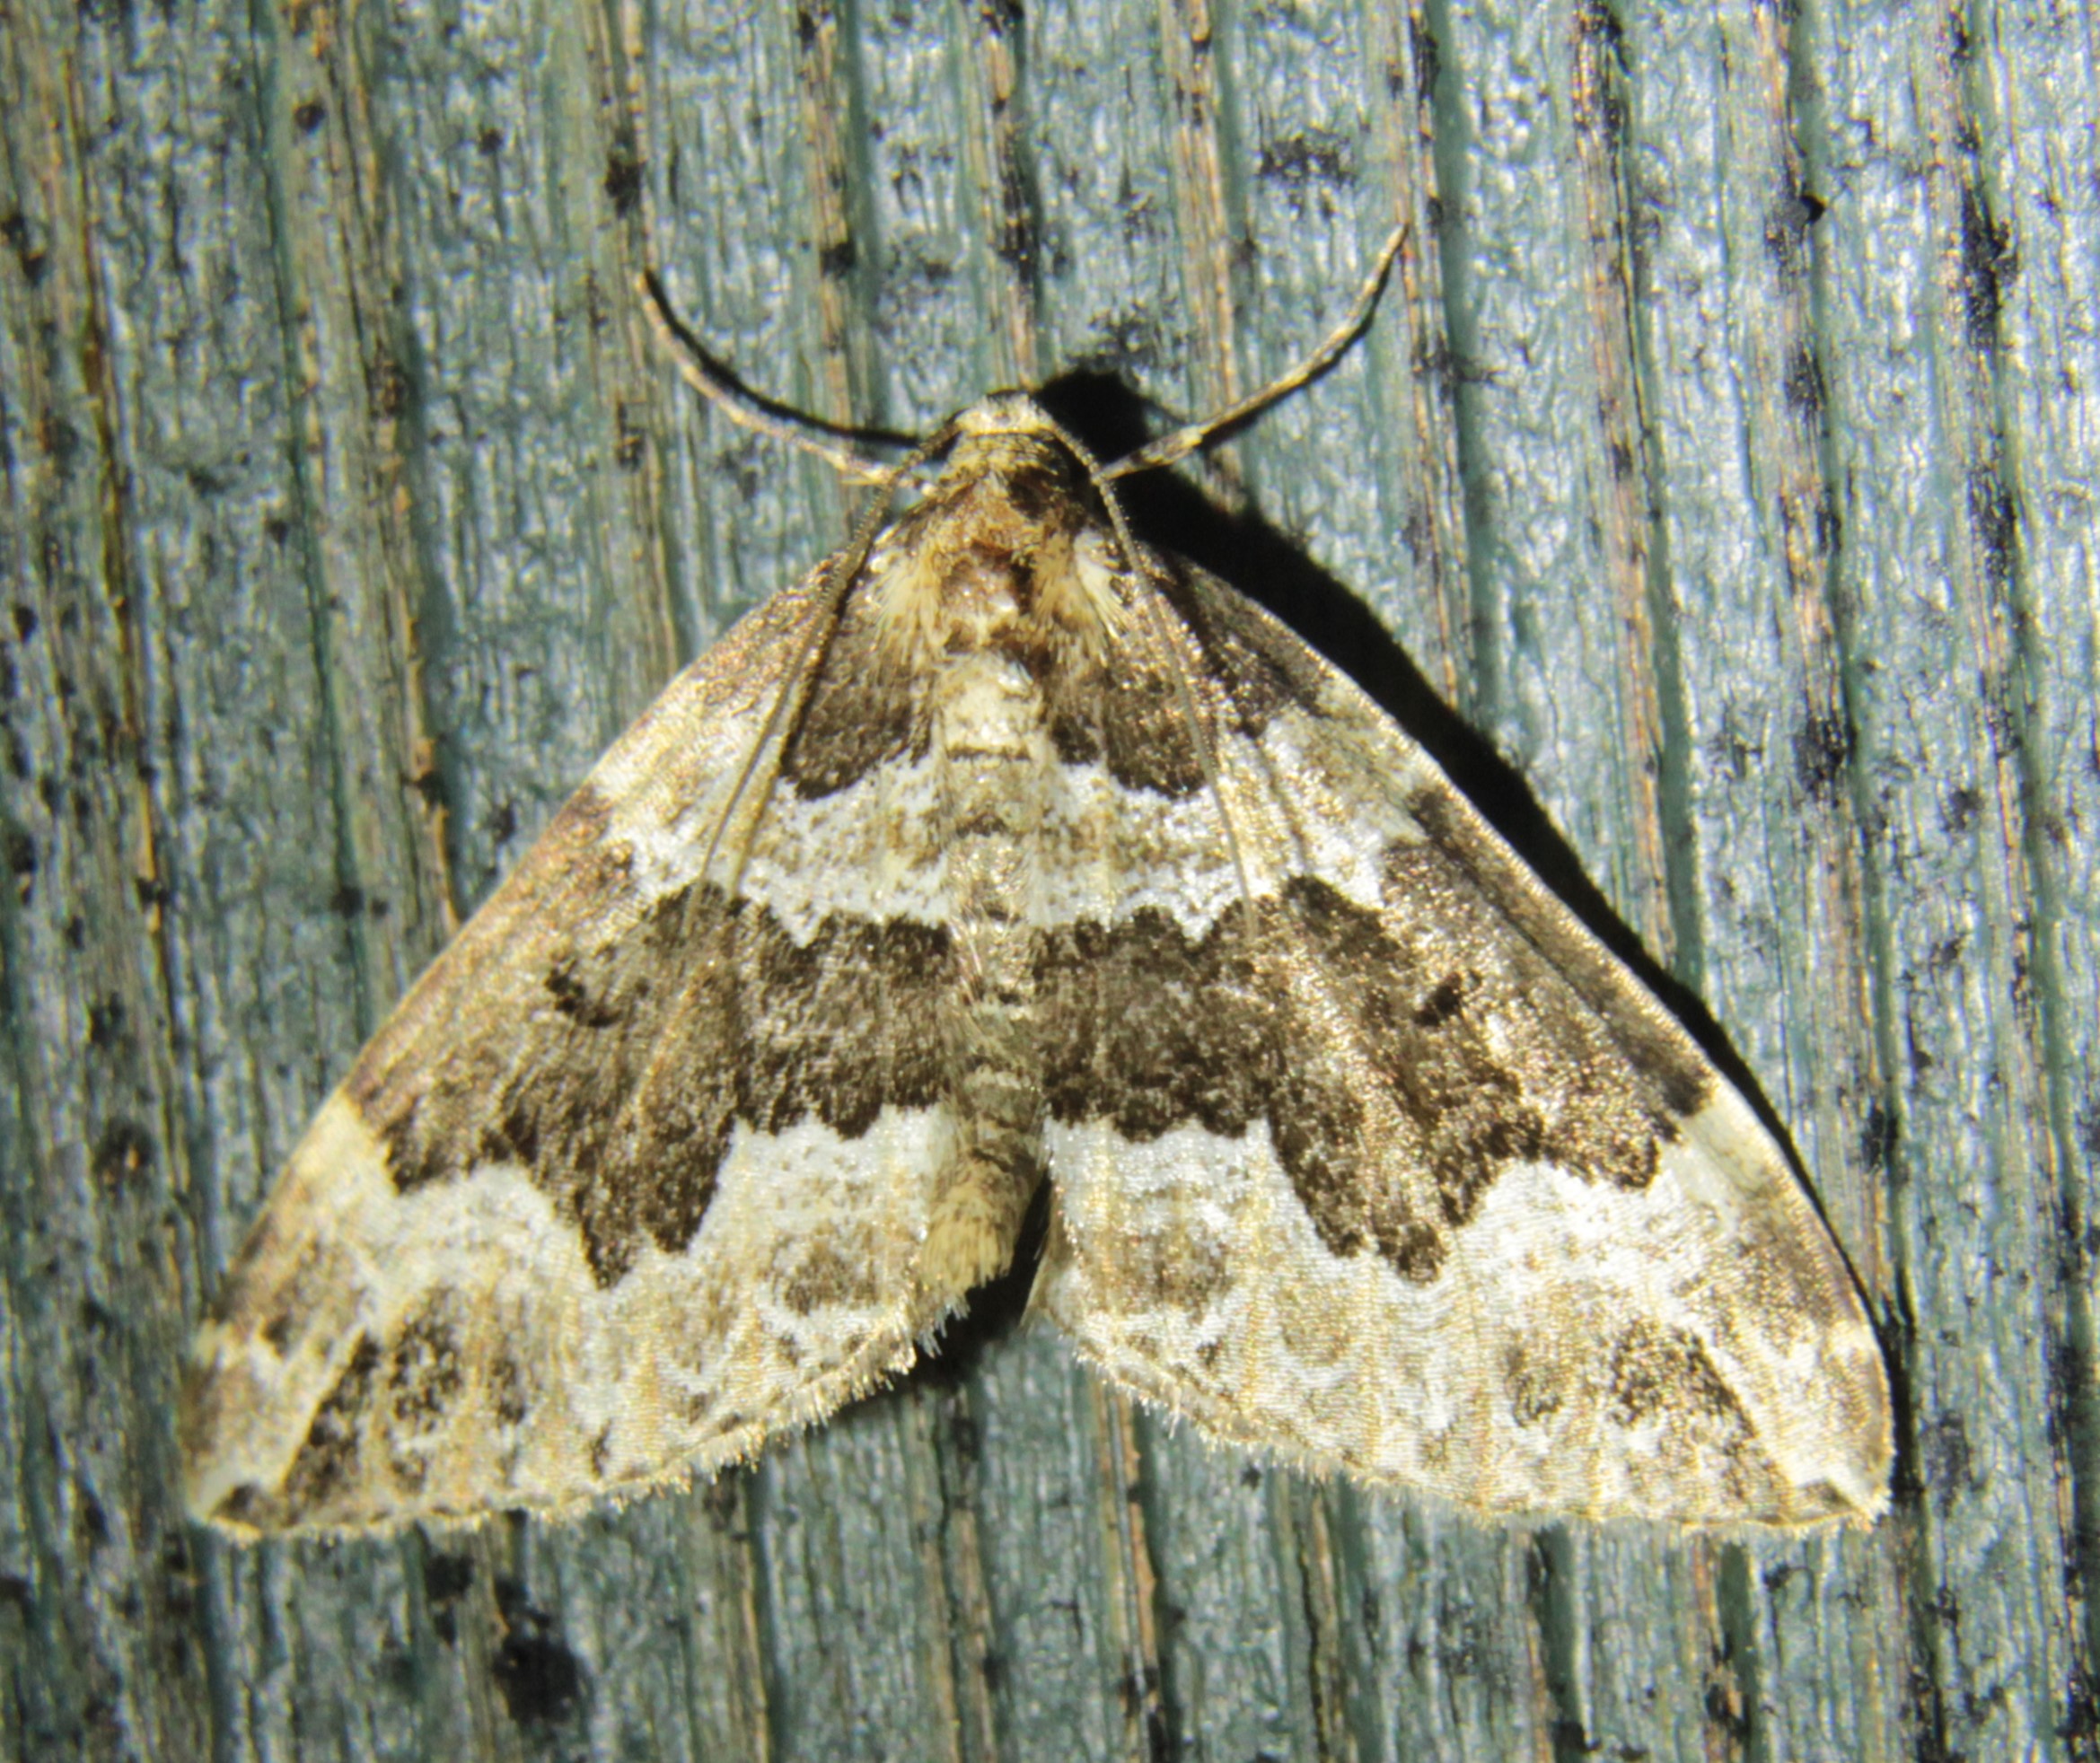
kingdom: Animalia
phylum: Arthropoda
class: Insecta
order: Lepidoptera
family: Geometridae
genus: Lampropteryx
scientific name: Lampropteryx suffumata
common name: Water carpet
